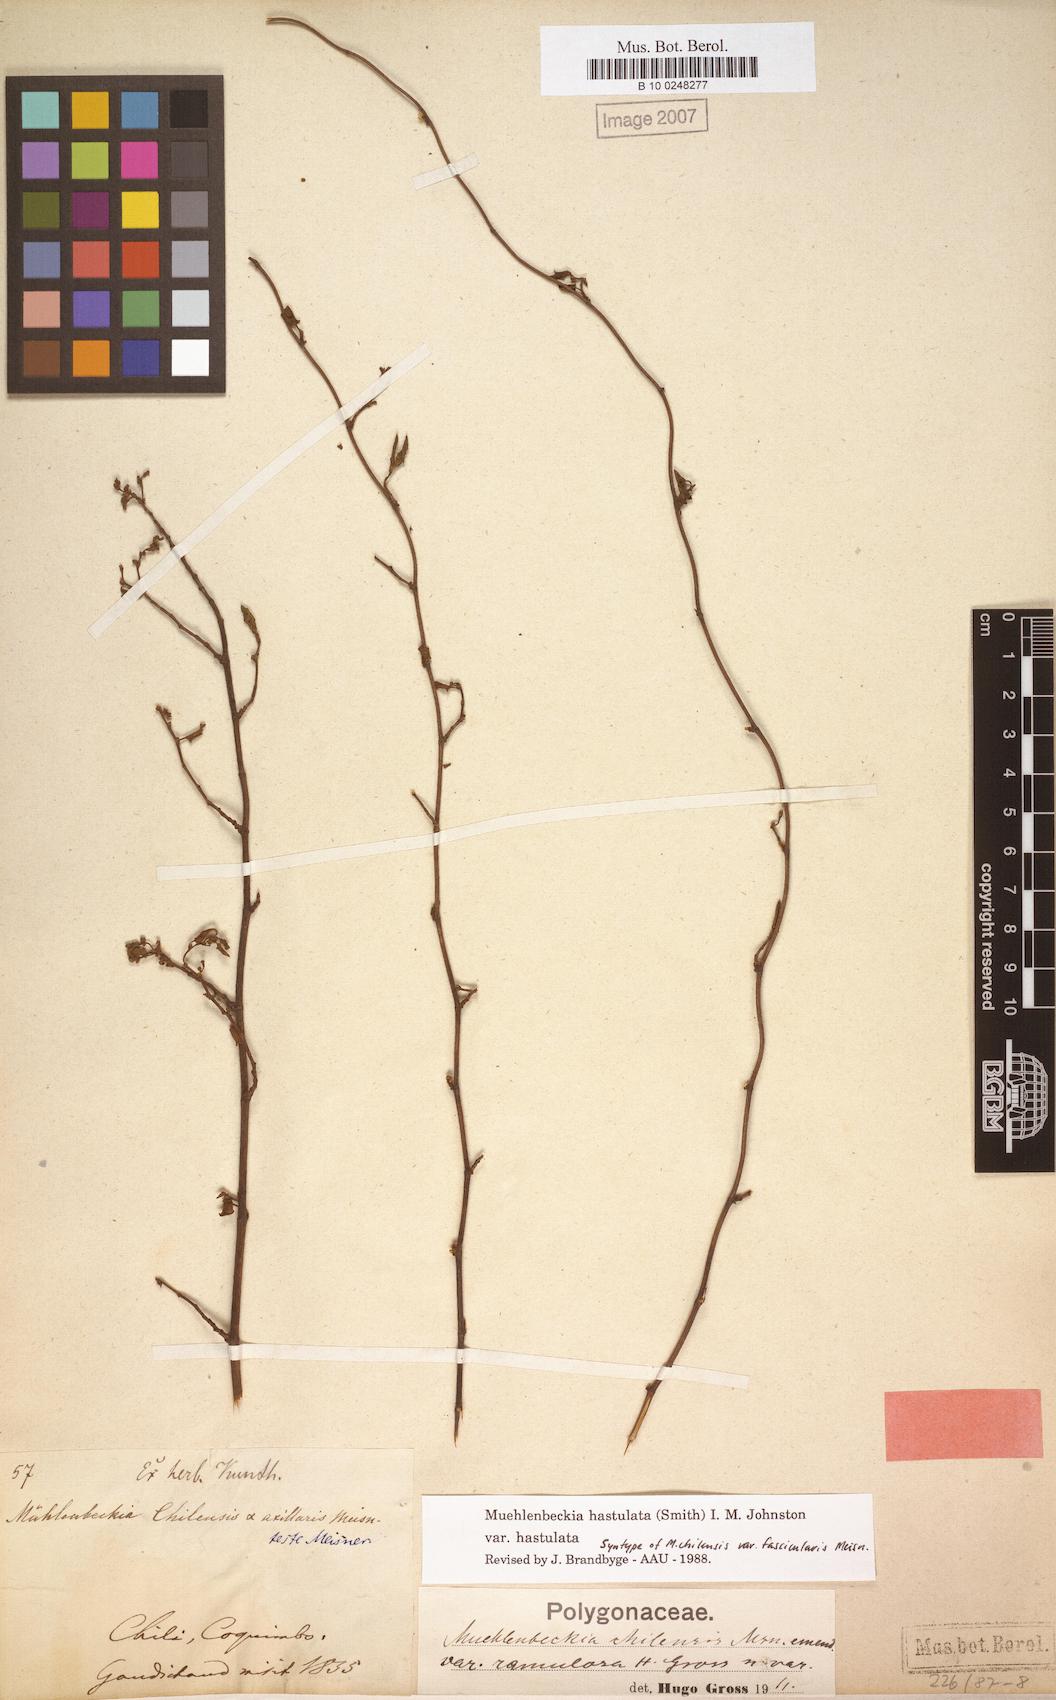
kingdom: Plantae
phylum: Tracheophyta
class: Magnoliopsida
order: Caryophyllales
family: Polygonaceae
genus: Muehlenbeckia
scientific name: Muehlenbeckia hastulata
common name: Wirevine
